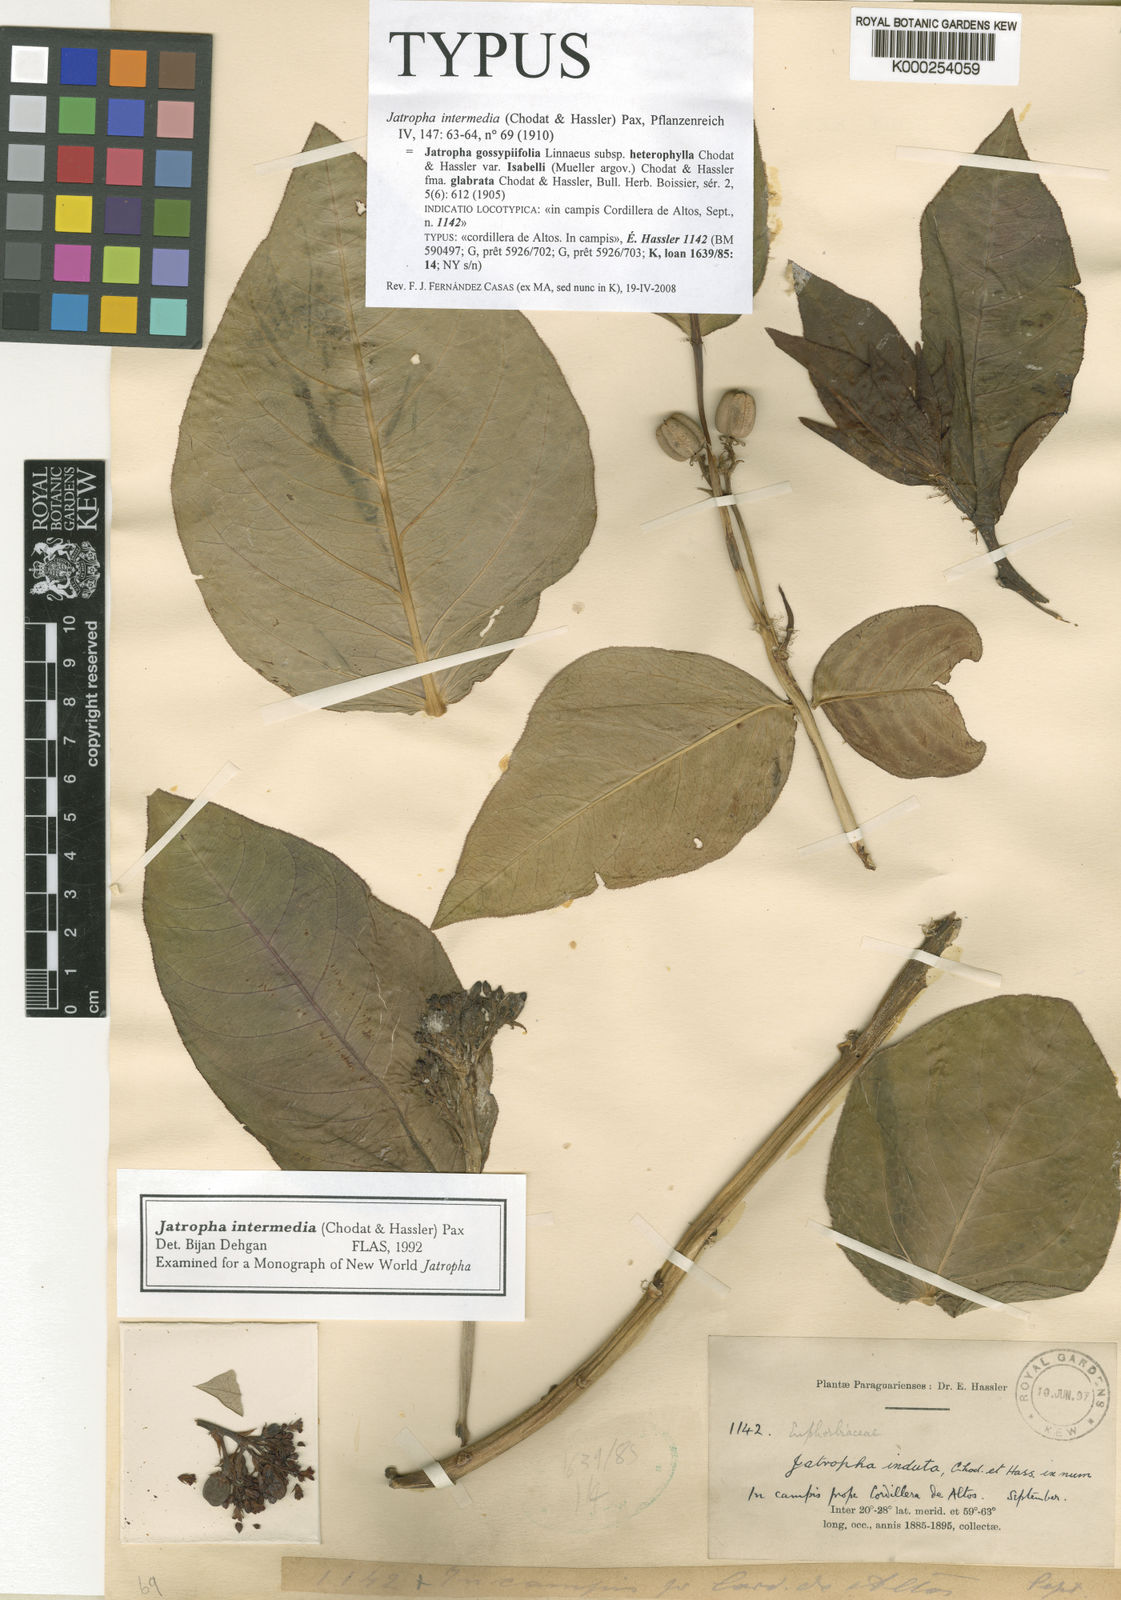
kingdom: Plantae
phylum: Tracheophyta
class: Magnoliopsida
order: Malpighiales
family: Euphorbiaceae
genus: Jatropha
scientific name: Jatropha intermedia
